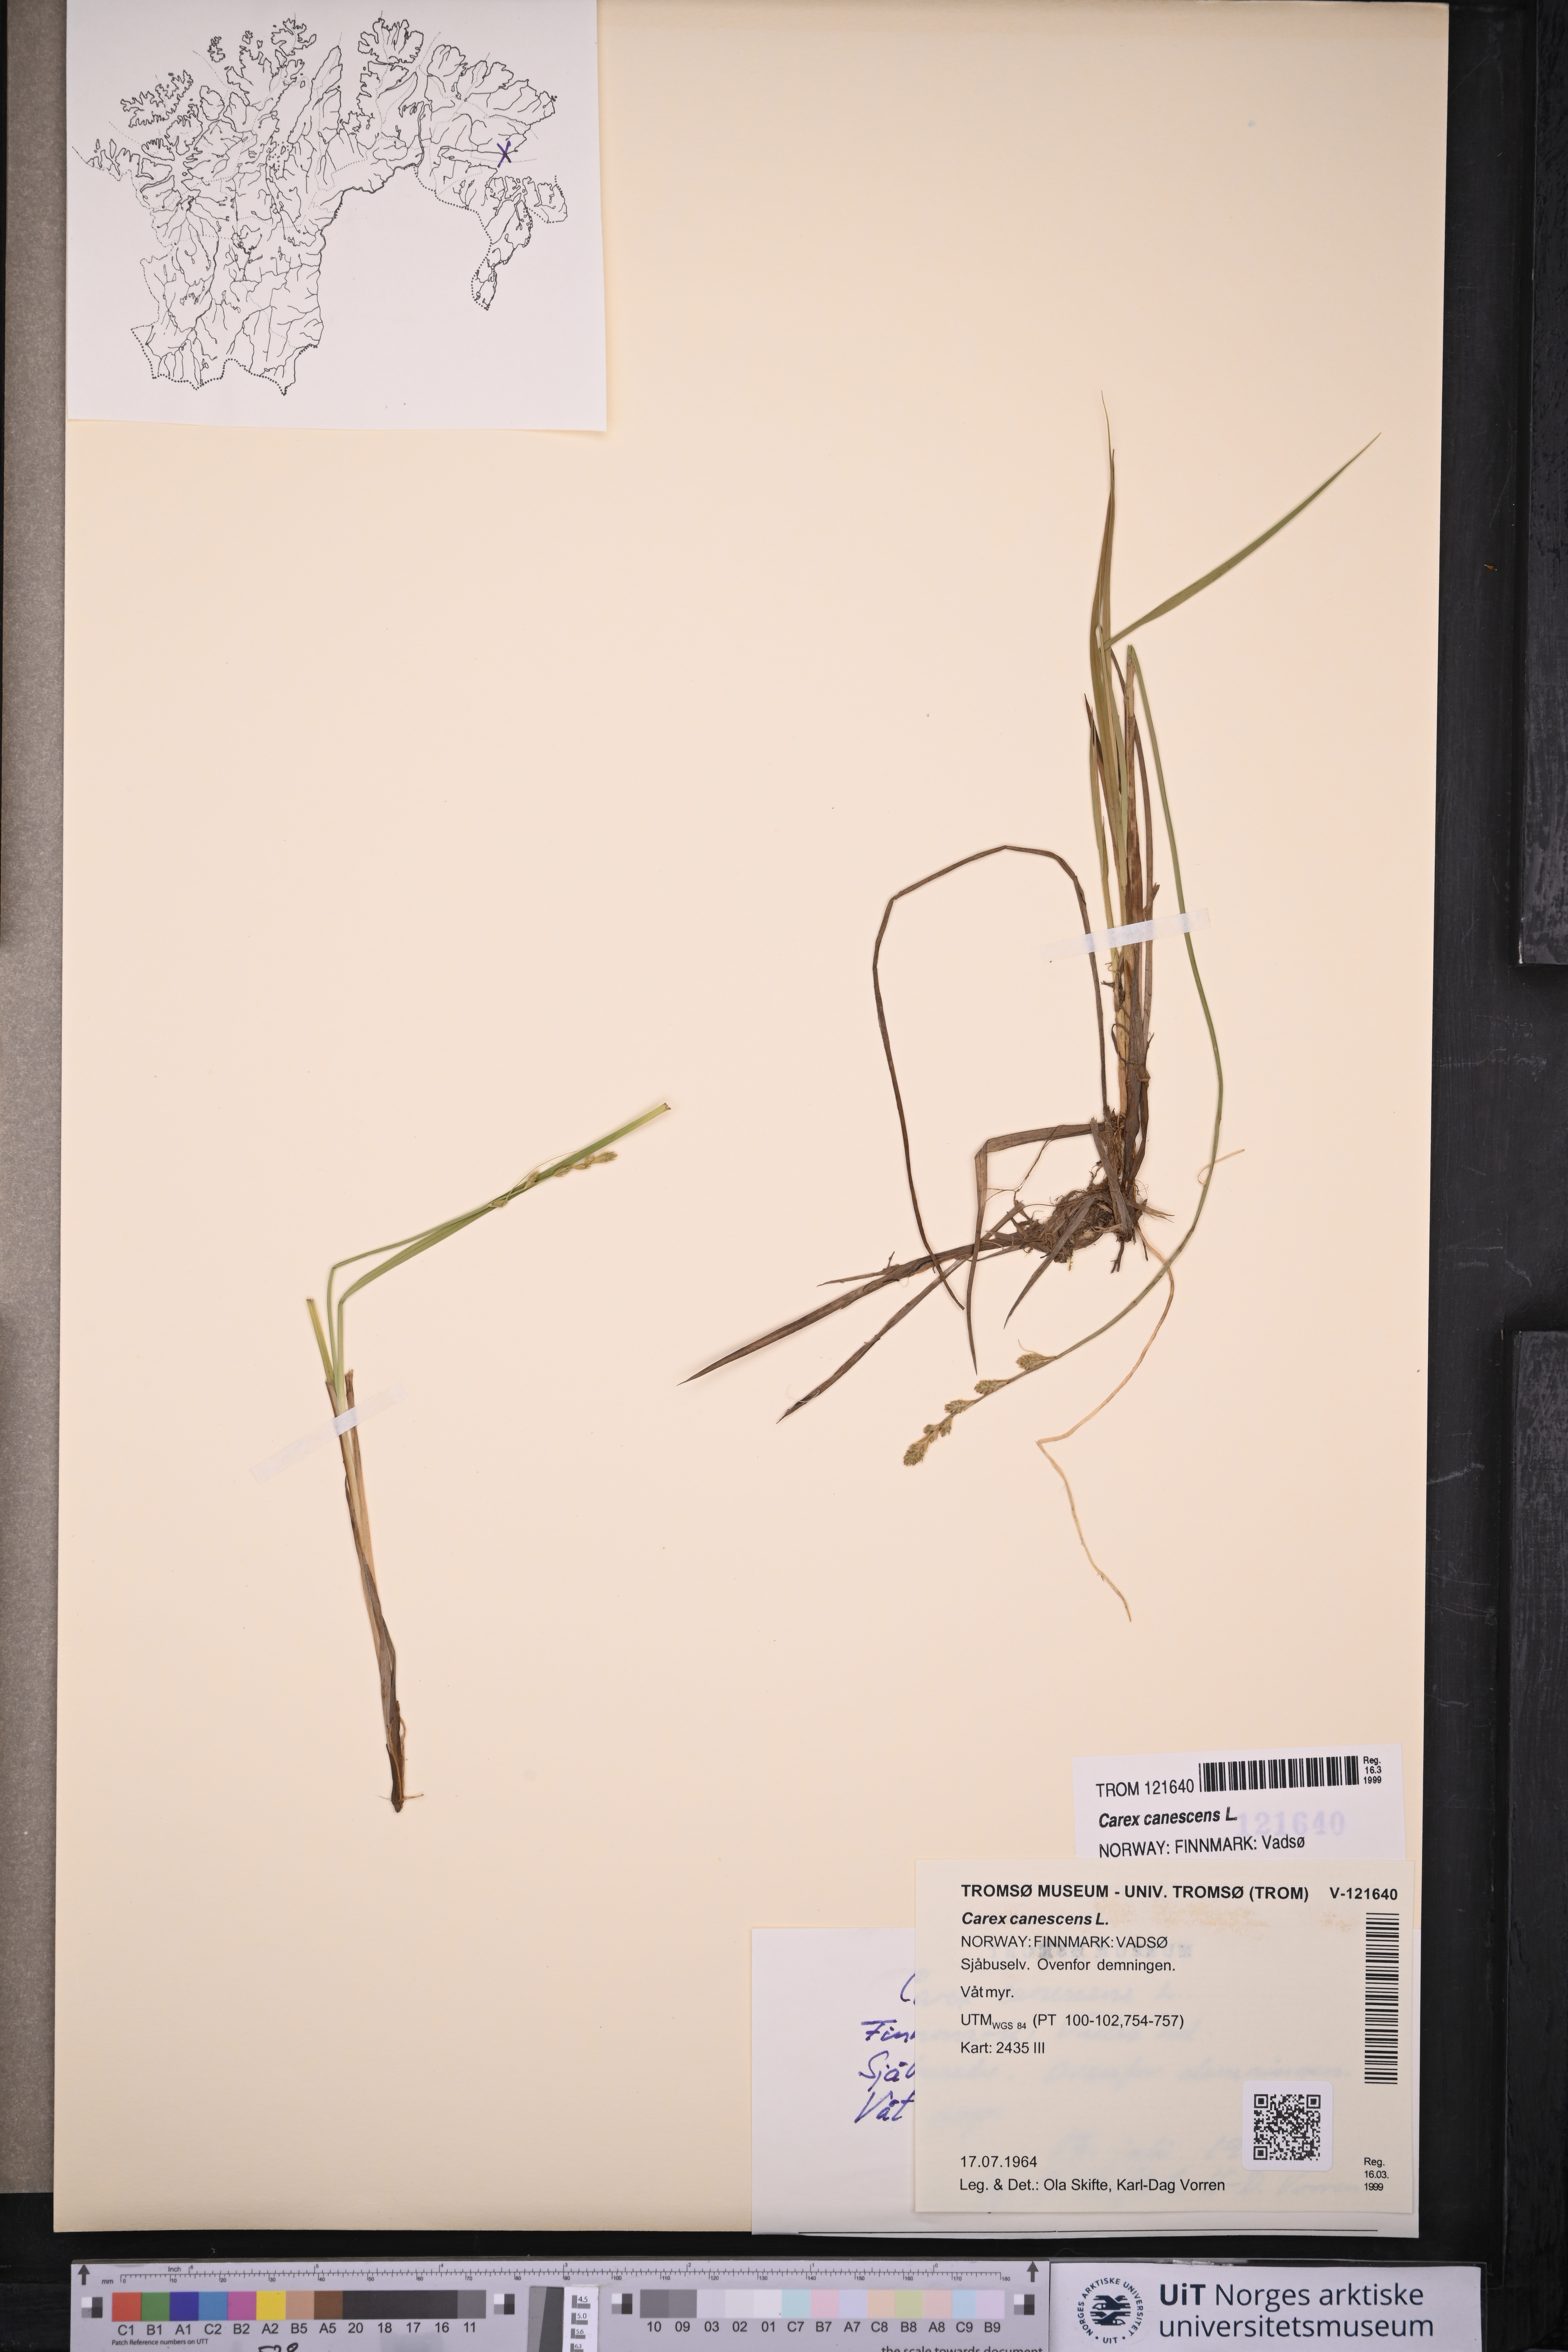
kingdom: Plantae
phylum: Tracheophyta
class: Liliopsida
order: Poales
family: Cyperaceae
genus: Carex
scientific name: Carex canescens
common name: White sedge
